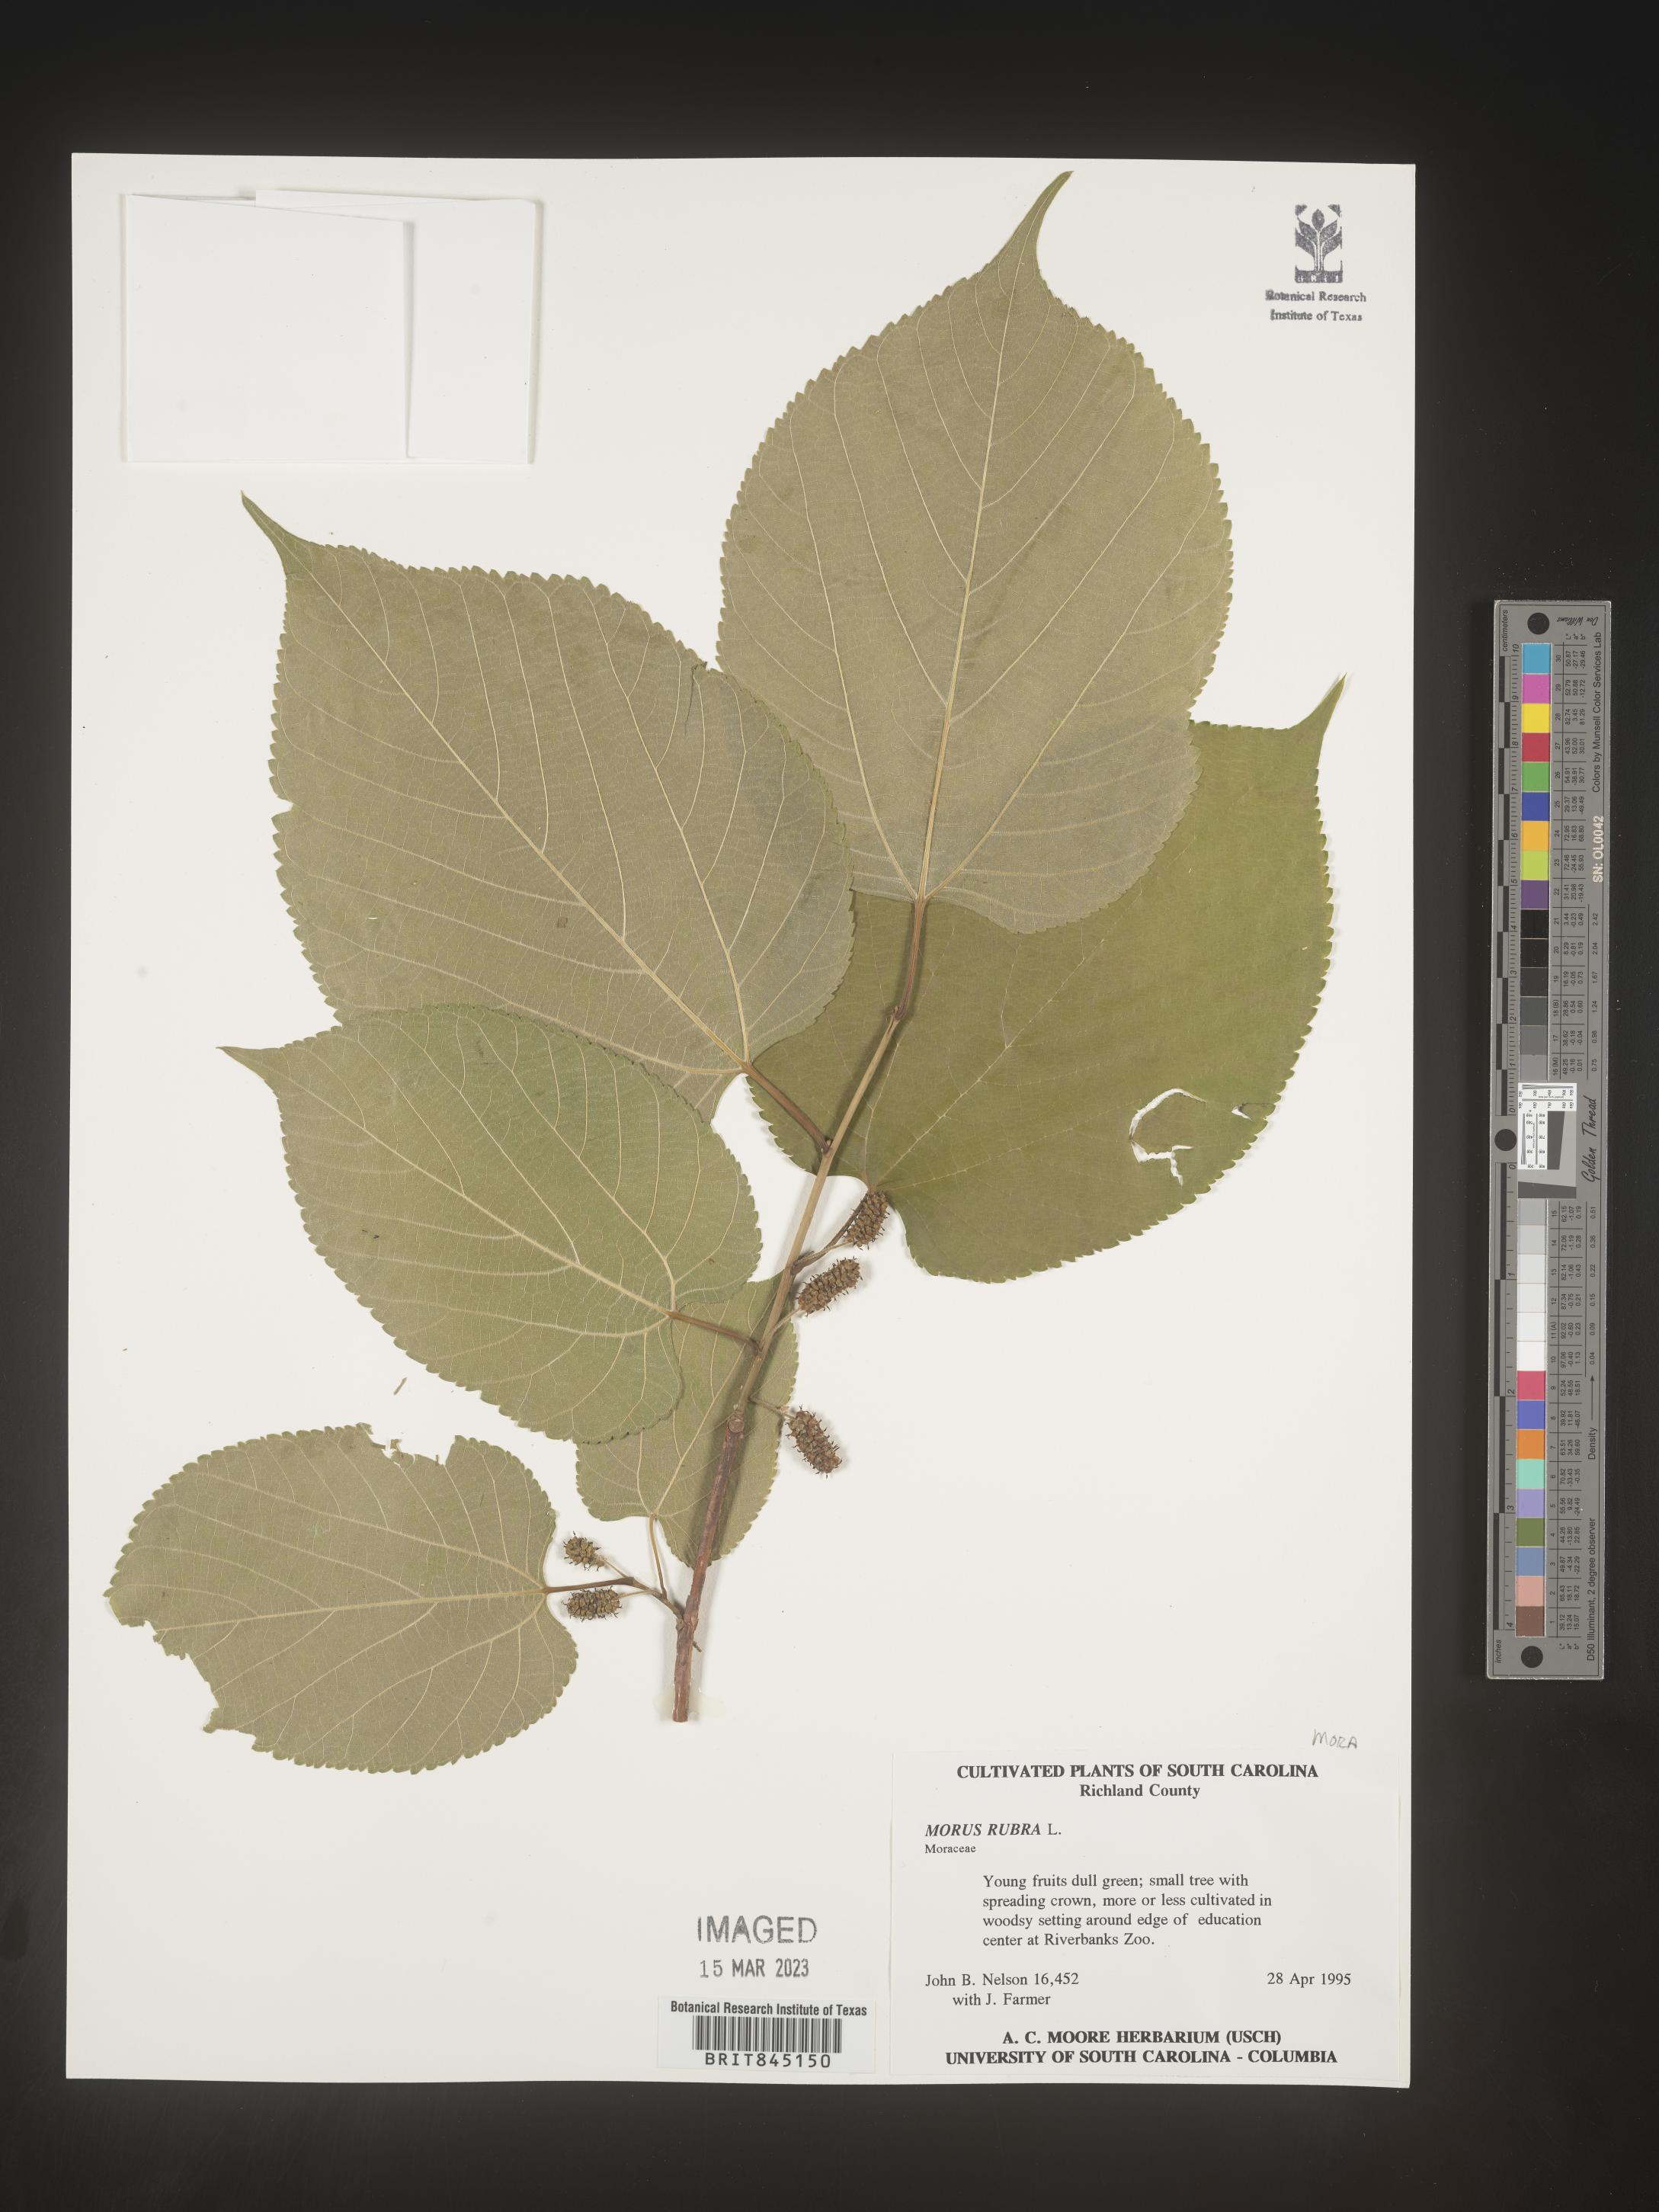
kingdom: Plantae
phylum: Tracheophyta
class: Magnoliopsida
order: Rosales
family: Moraceae
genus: Morus
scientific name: Morus rubra
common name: Red mulberry
